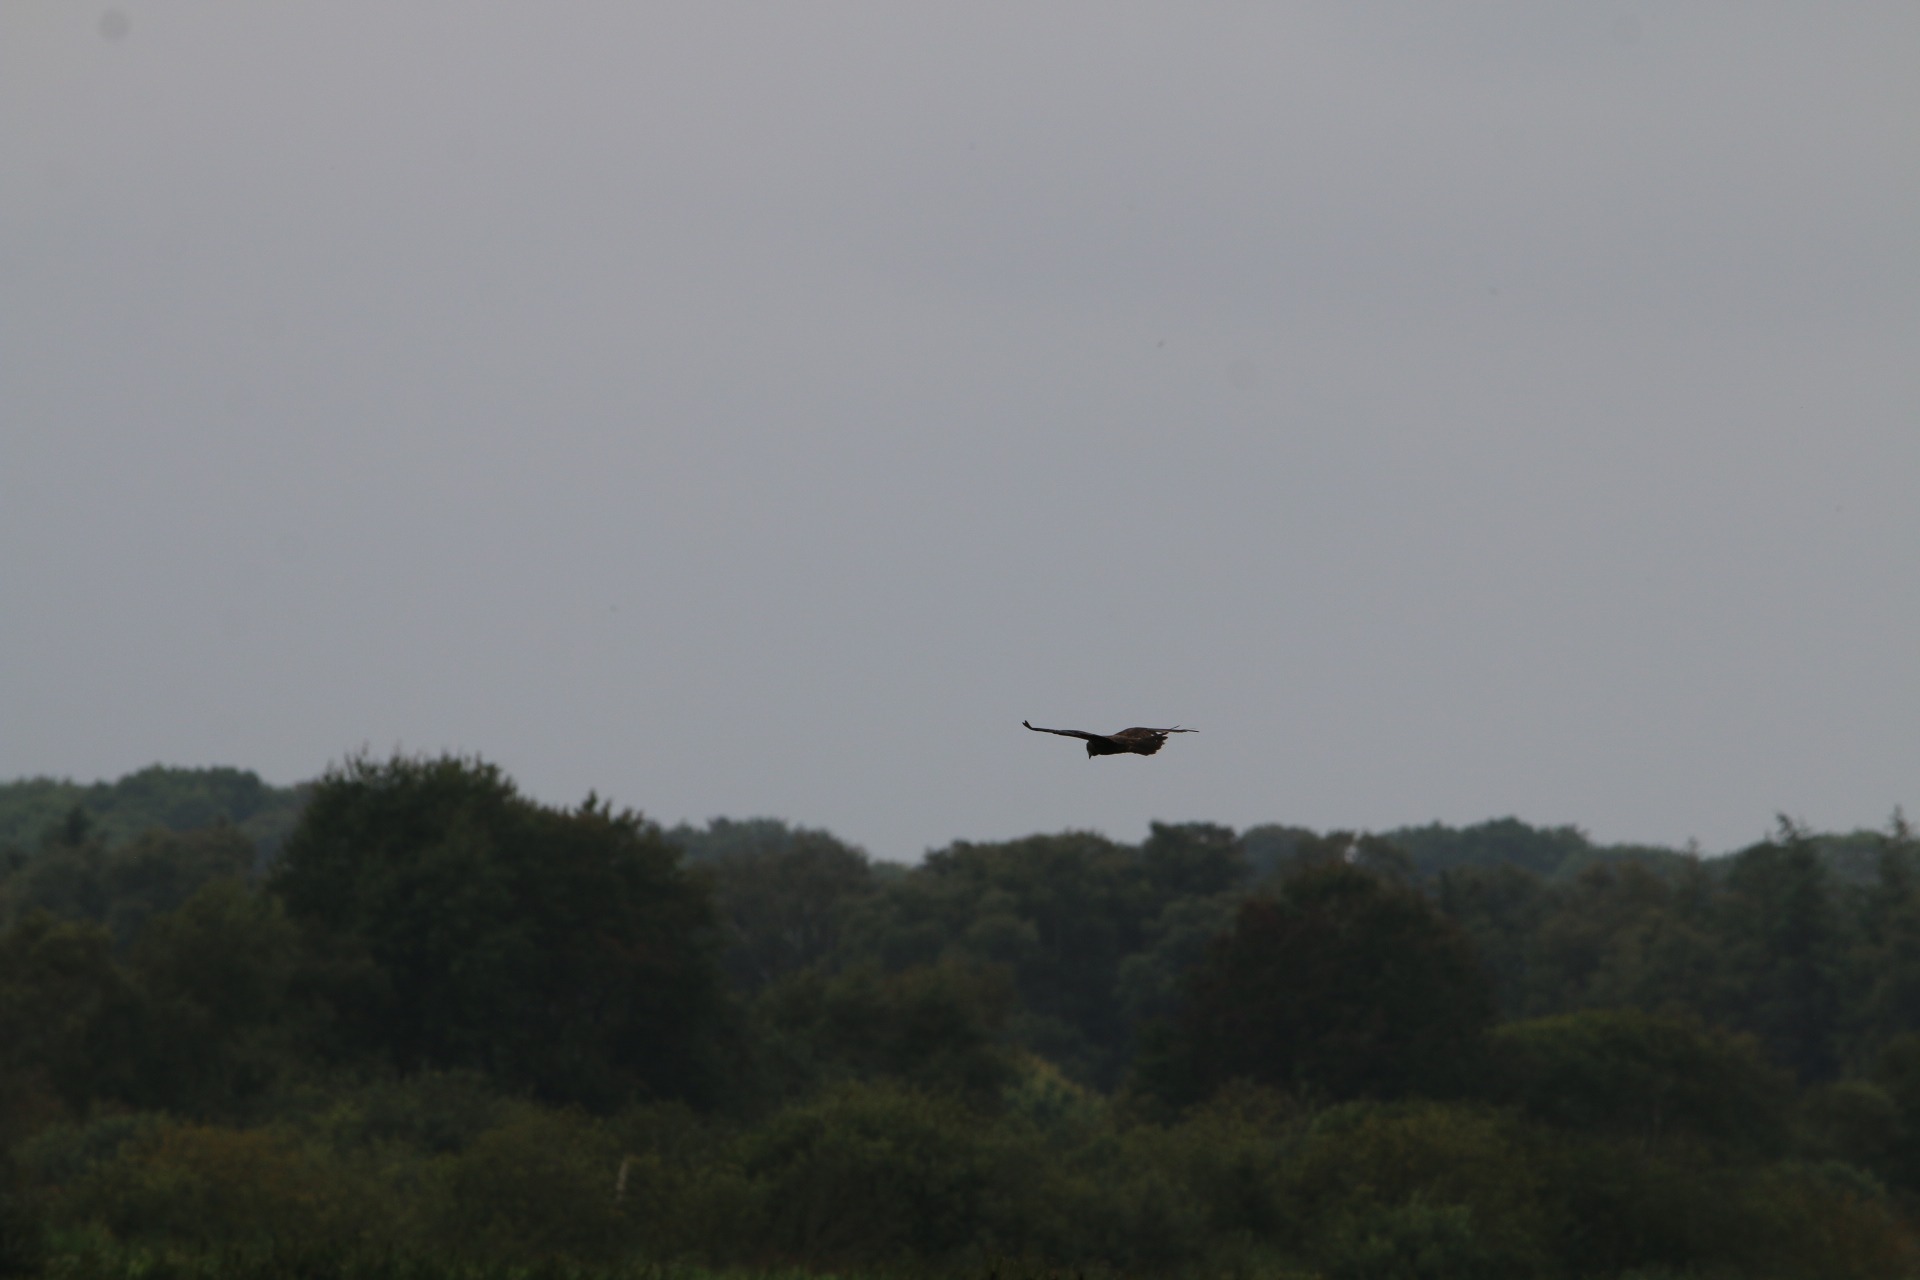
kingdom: Animalia
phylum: Chordata
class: Aves
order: Accipitriformes
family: Accipitridae
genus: Circus
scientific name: Circus aeruginosus
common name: Rørhøg
